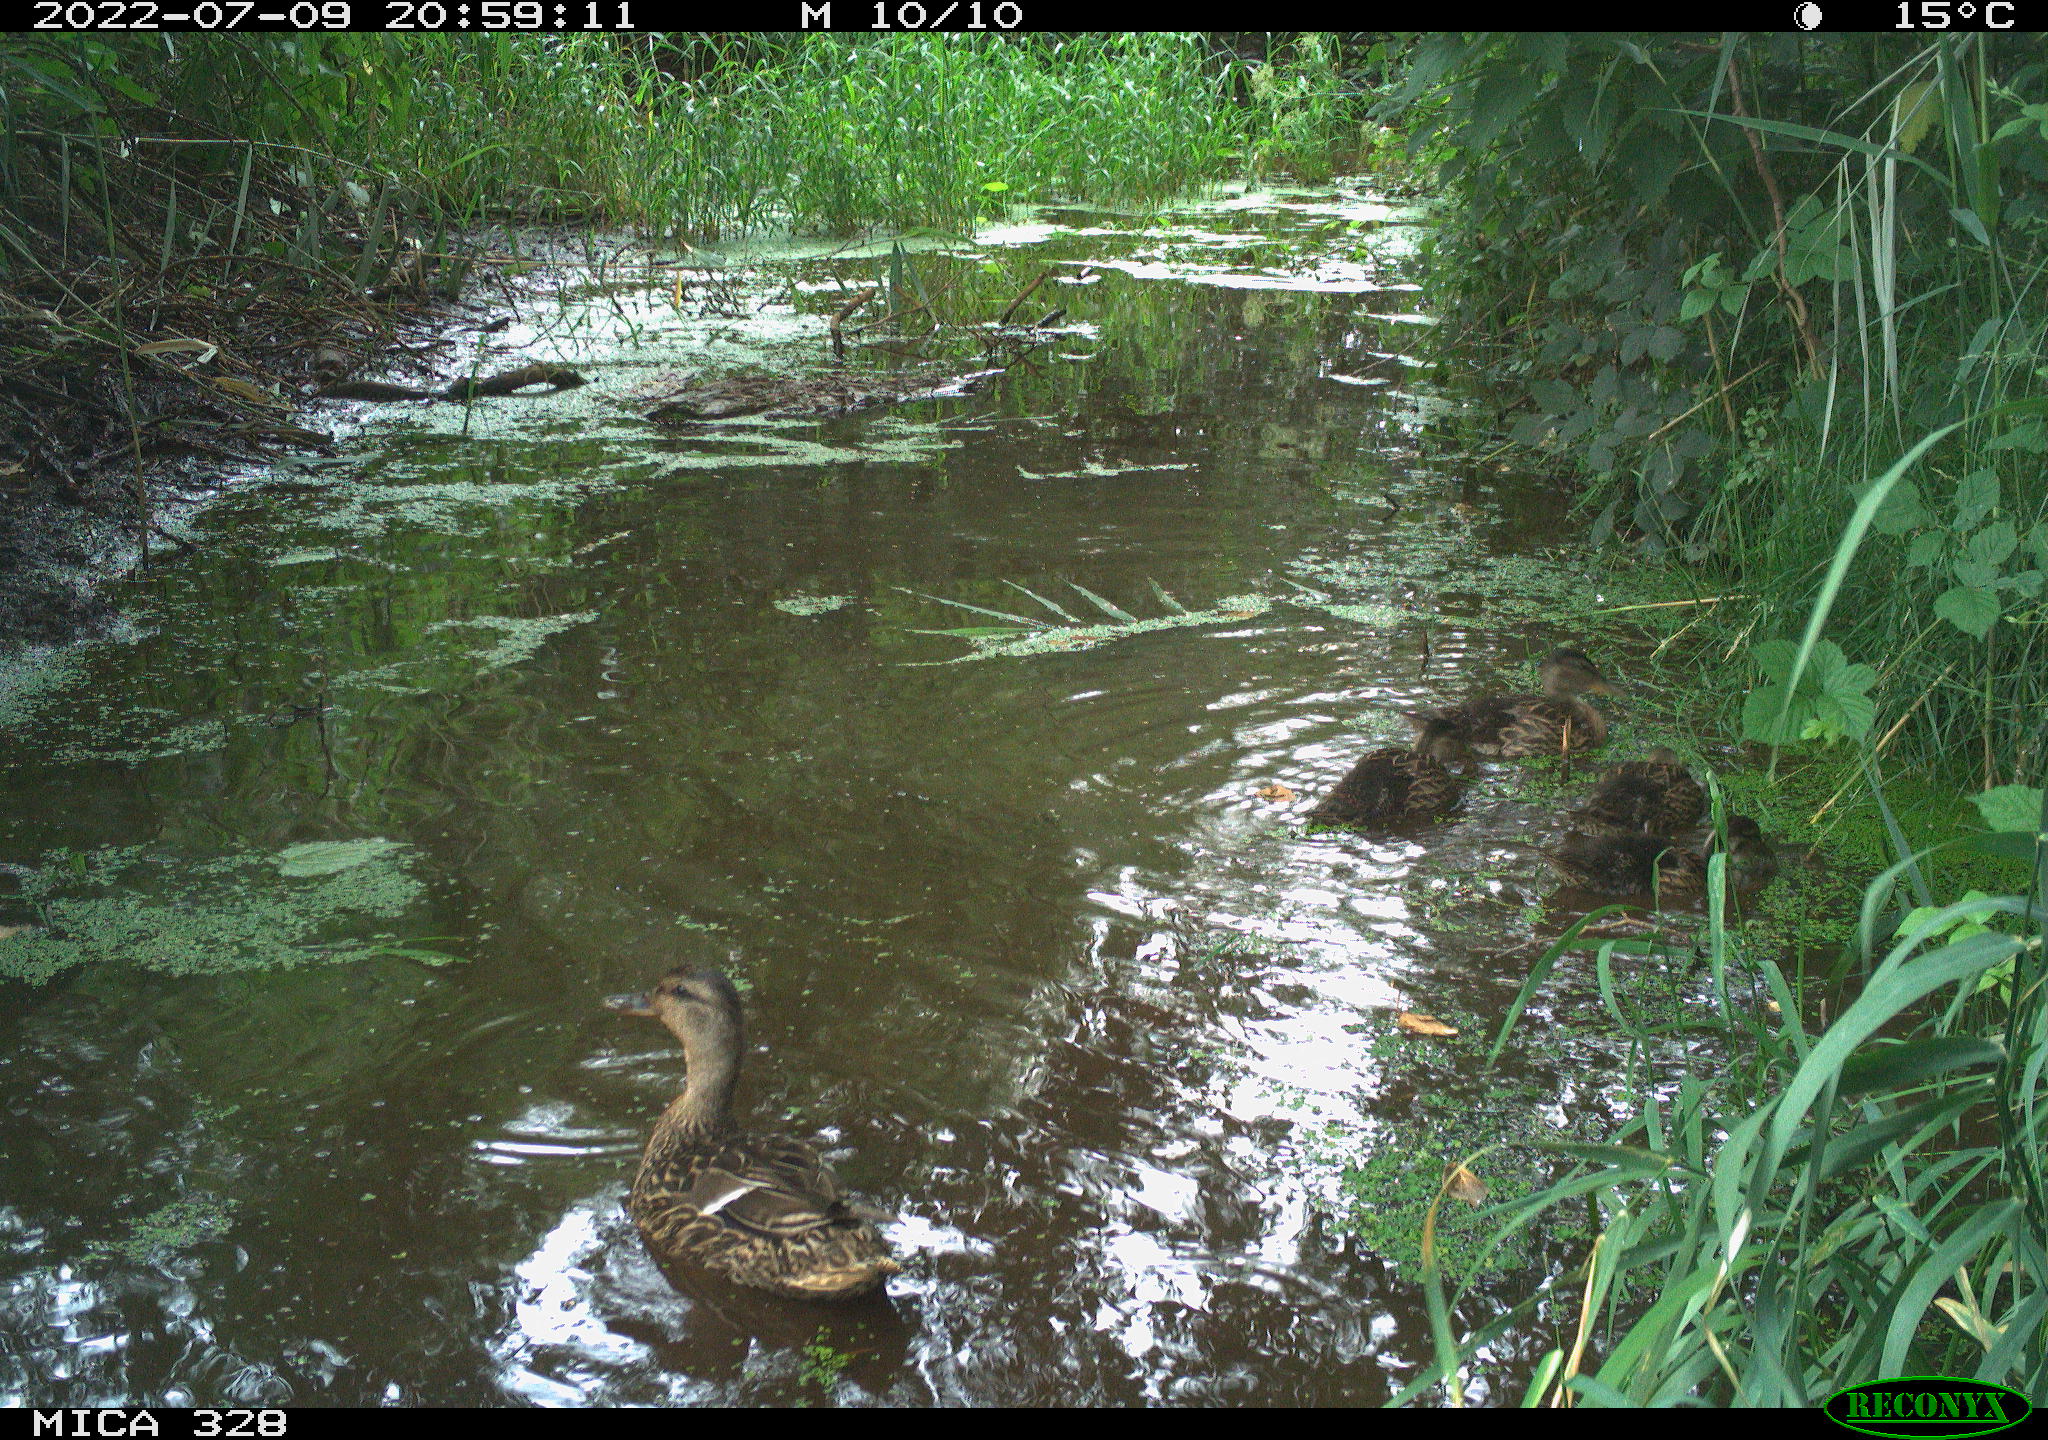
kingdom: Animalia
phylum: Chordata
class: Aves
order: Anseriformes
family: Anatidae
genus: Anas
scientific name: Anas
